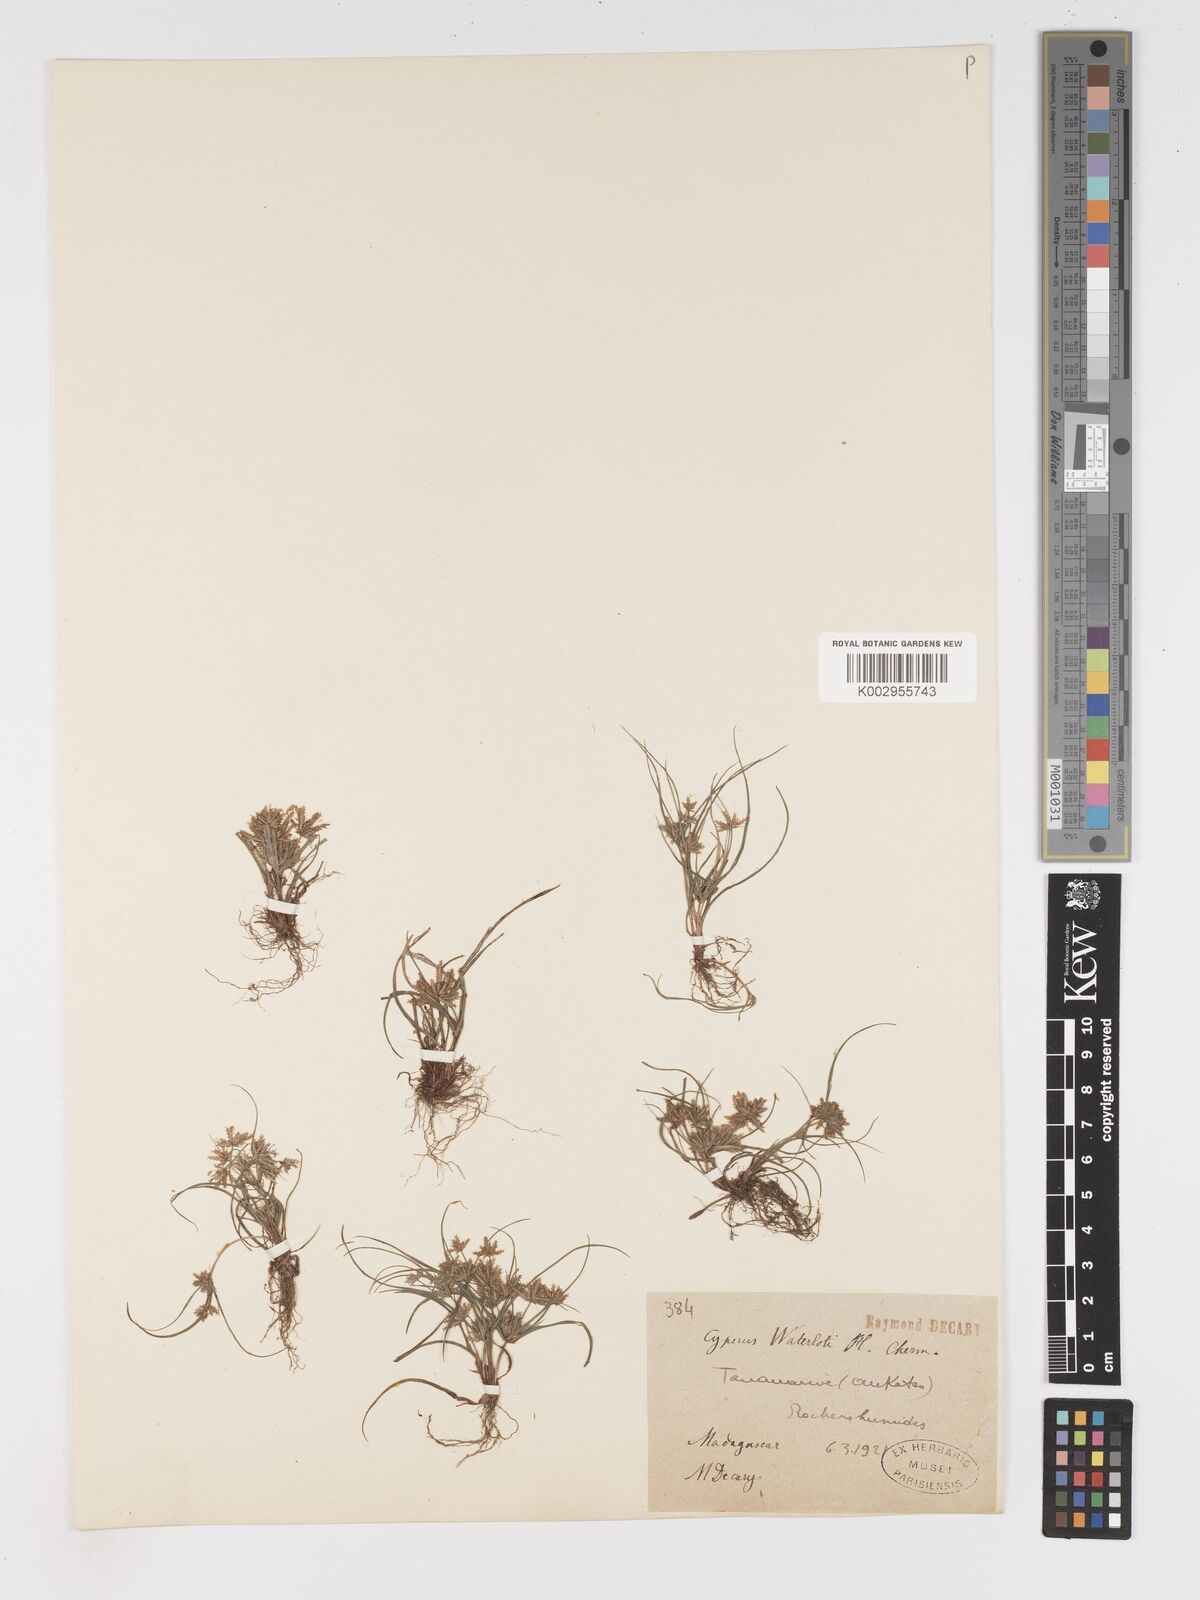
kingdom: Plantae
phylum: Tracheophyta
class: Liliopsida
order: Poales
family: Cyperaceae
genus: Cyperus
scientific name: Cyperus cuspidatus
